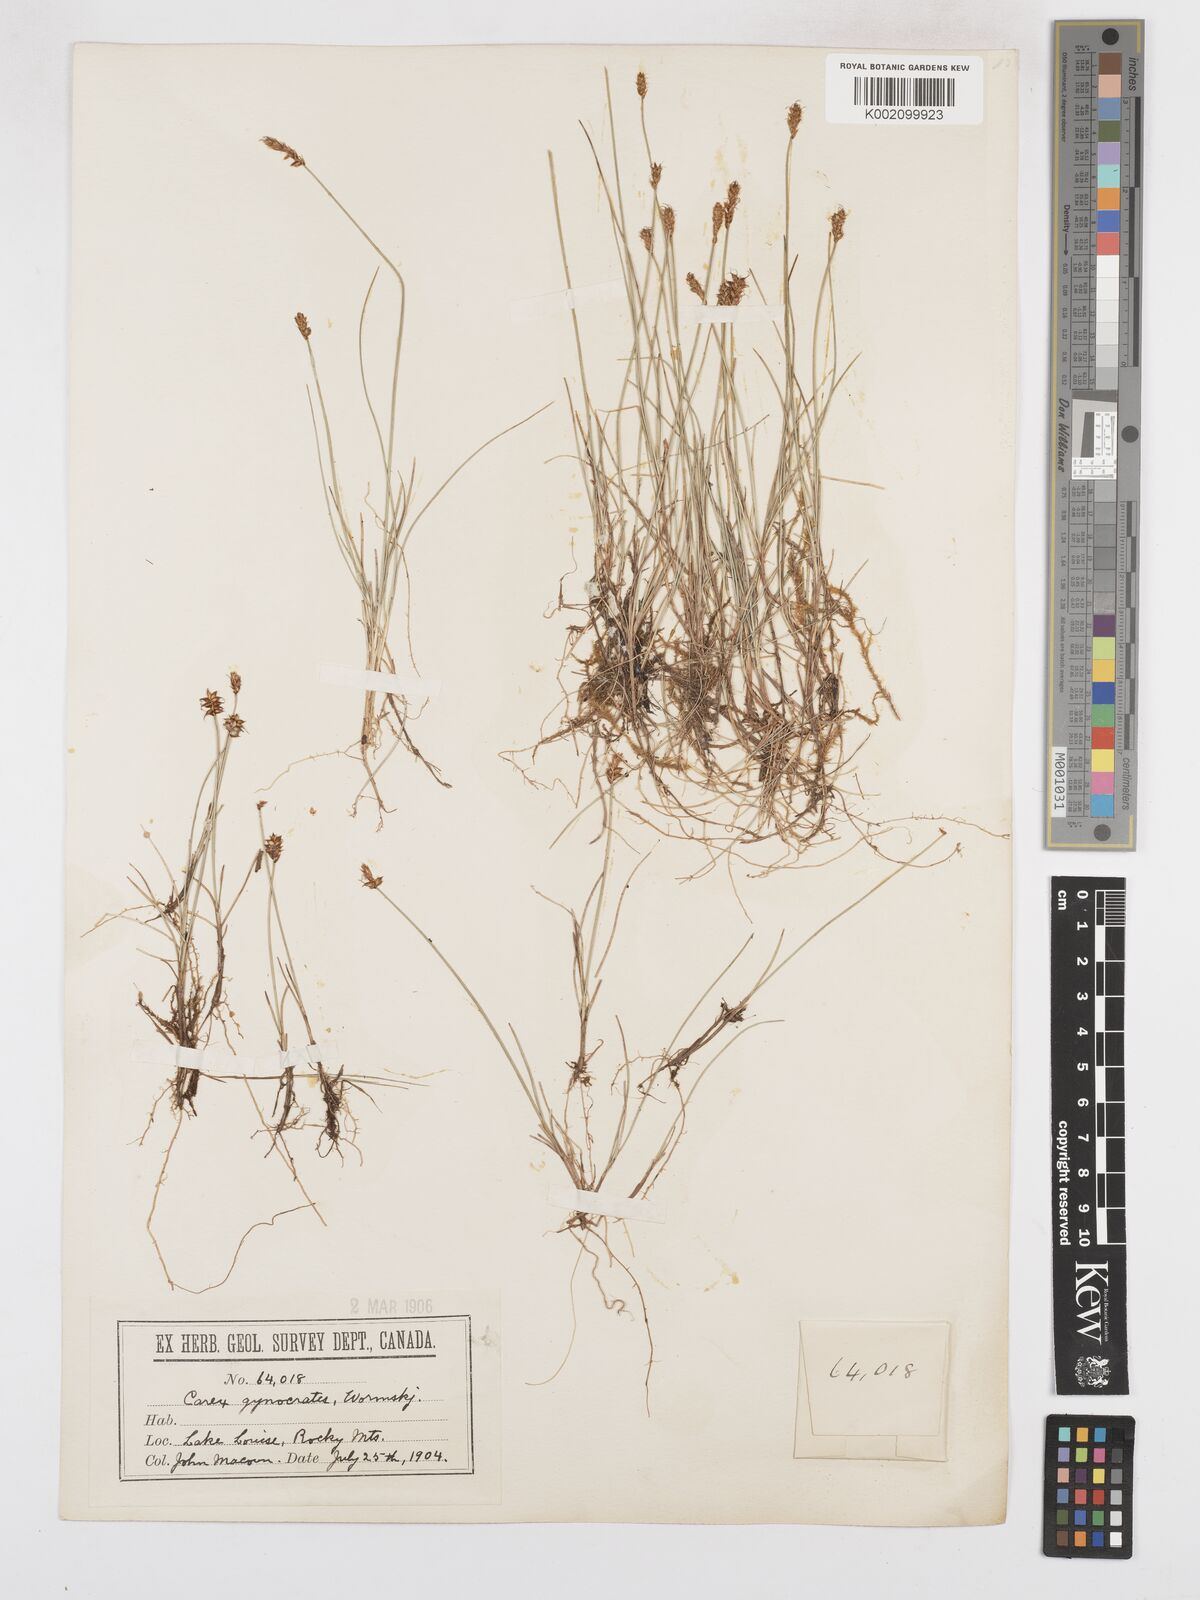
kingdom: Plantae
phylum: Tracheophyta
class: Liliopsida
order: Poales
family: Cyperaceae
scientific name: Cyperaceae
